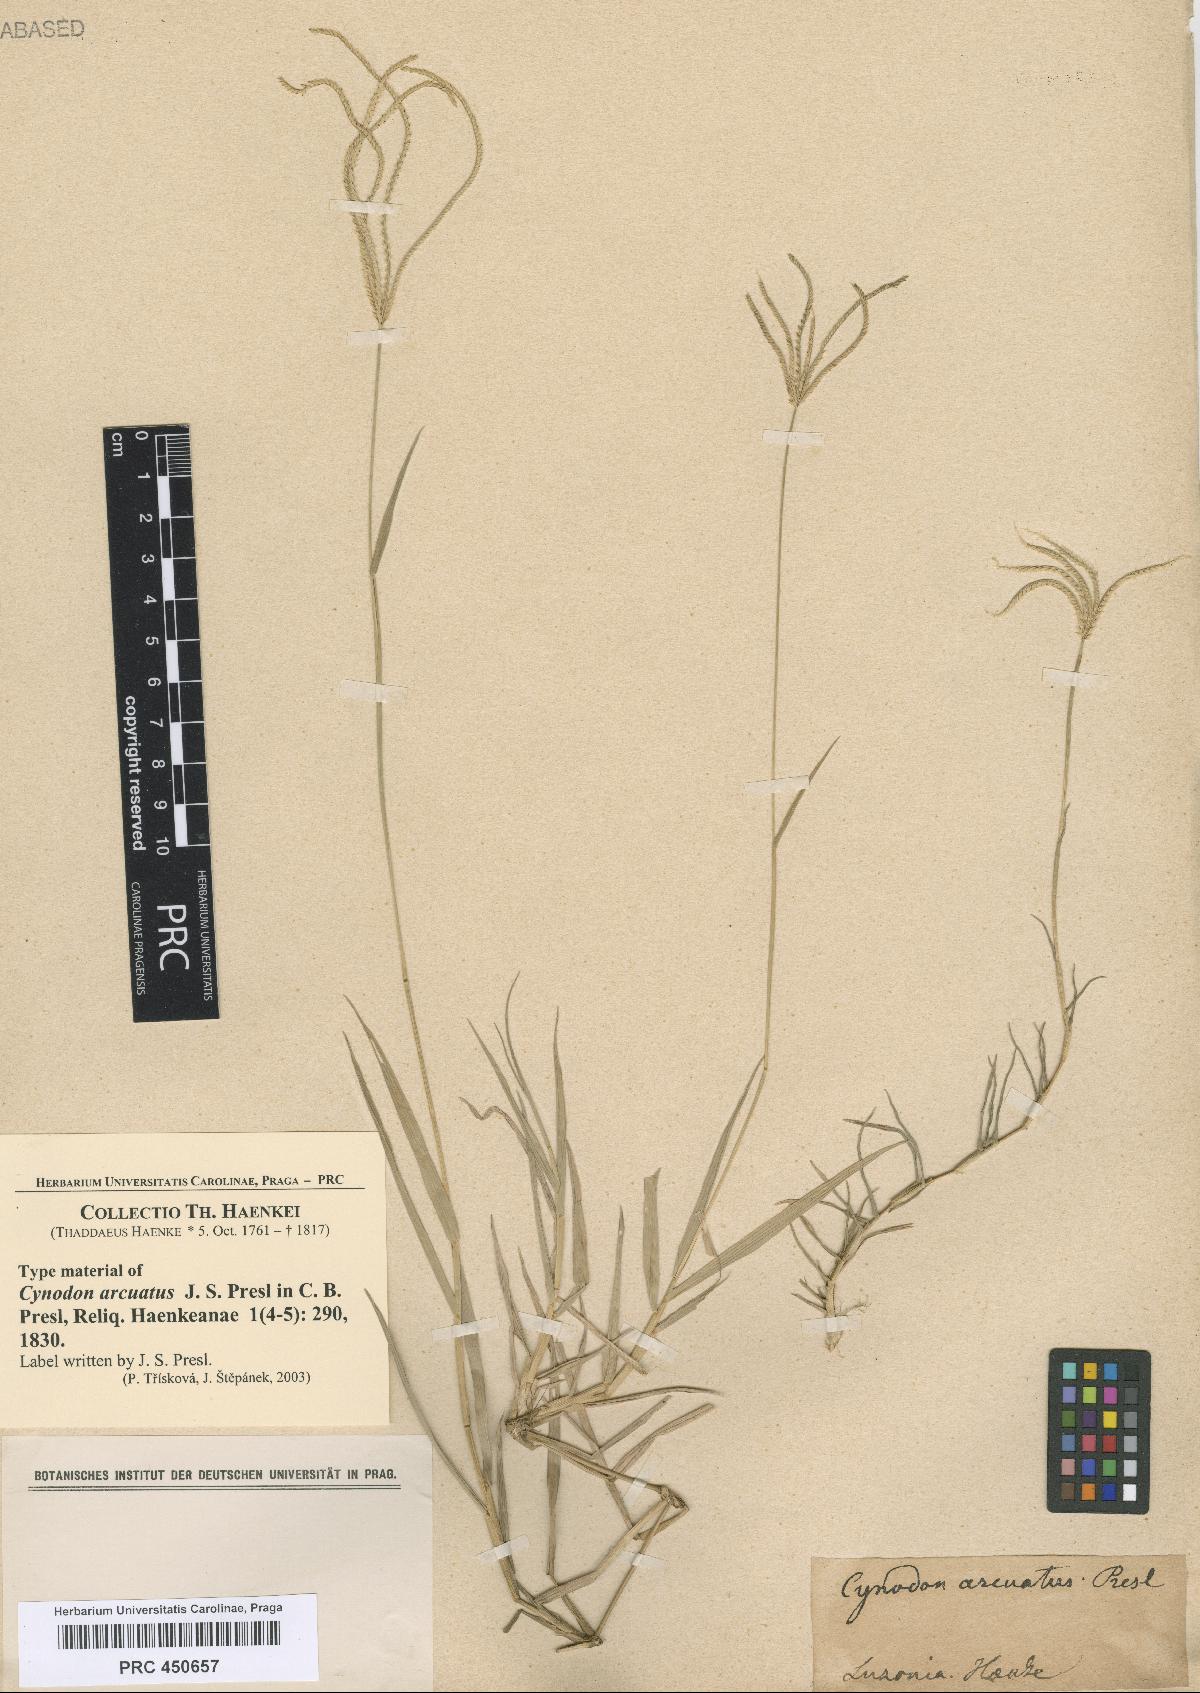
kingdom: Plantae
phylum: Tracheophyta
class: Liliopsida
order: Poales
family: Poaceae
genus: Cynodon
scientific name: Cynodon radiatus
